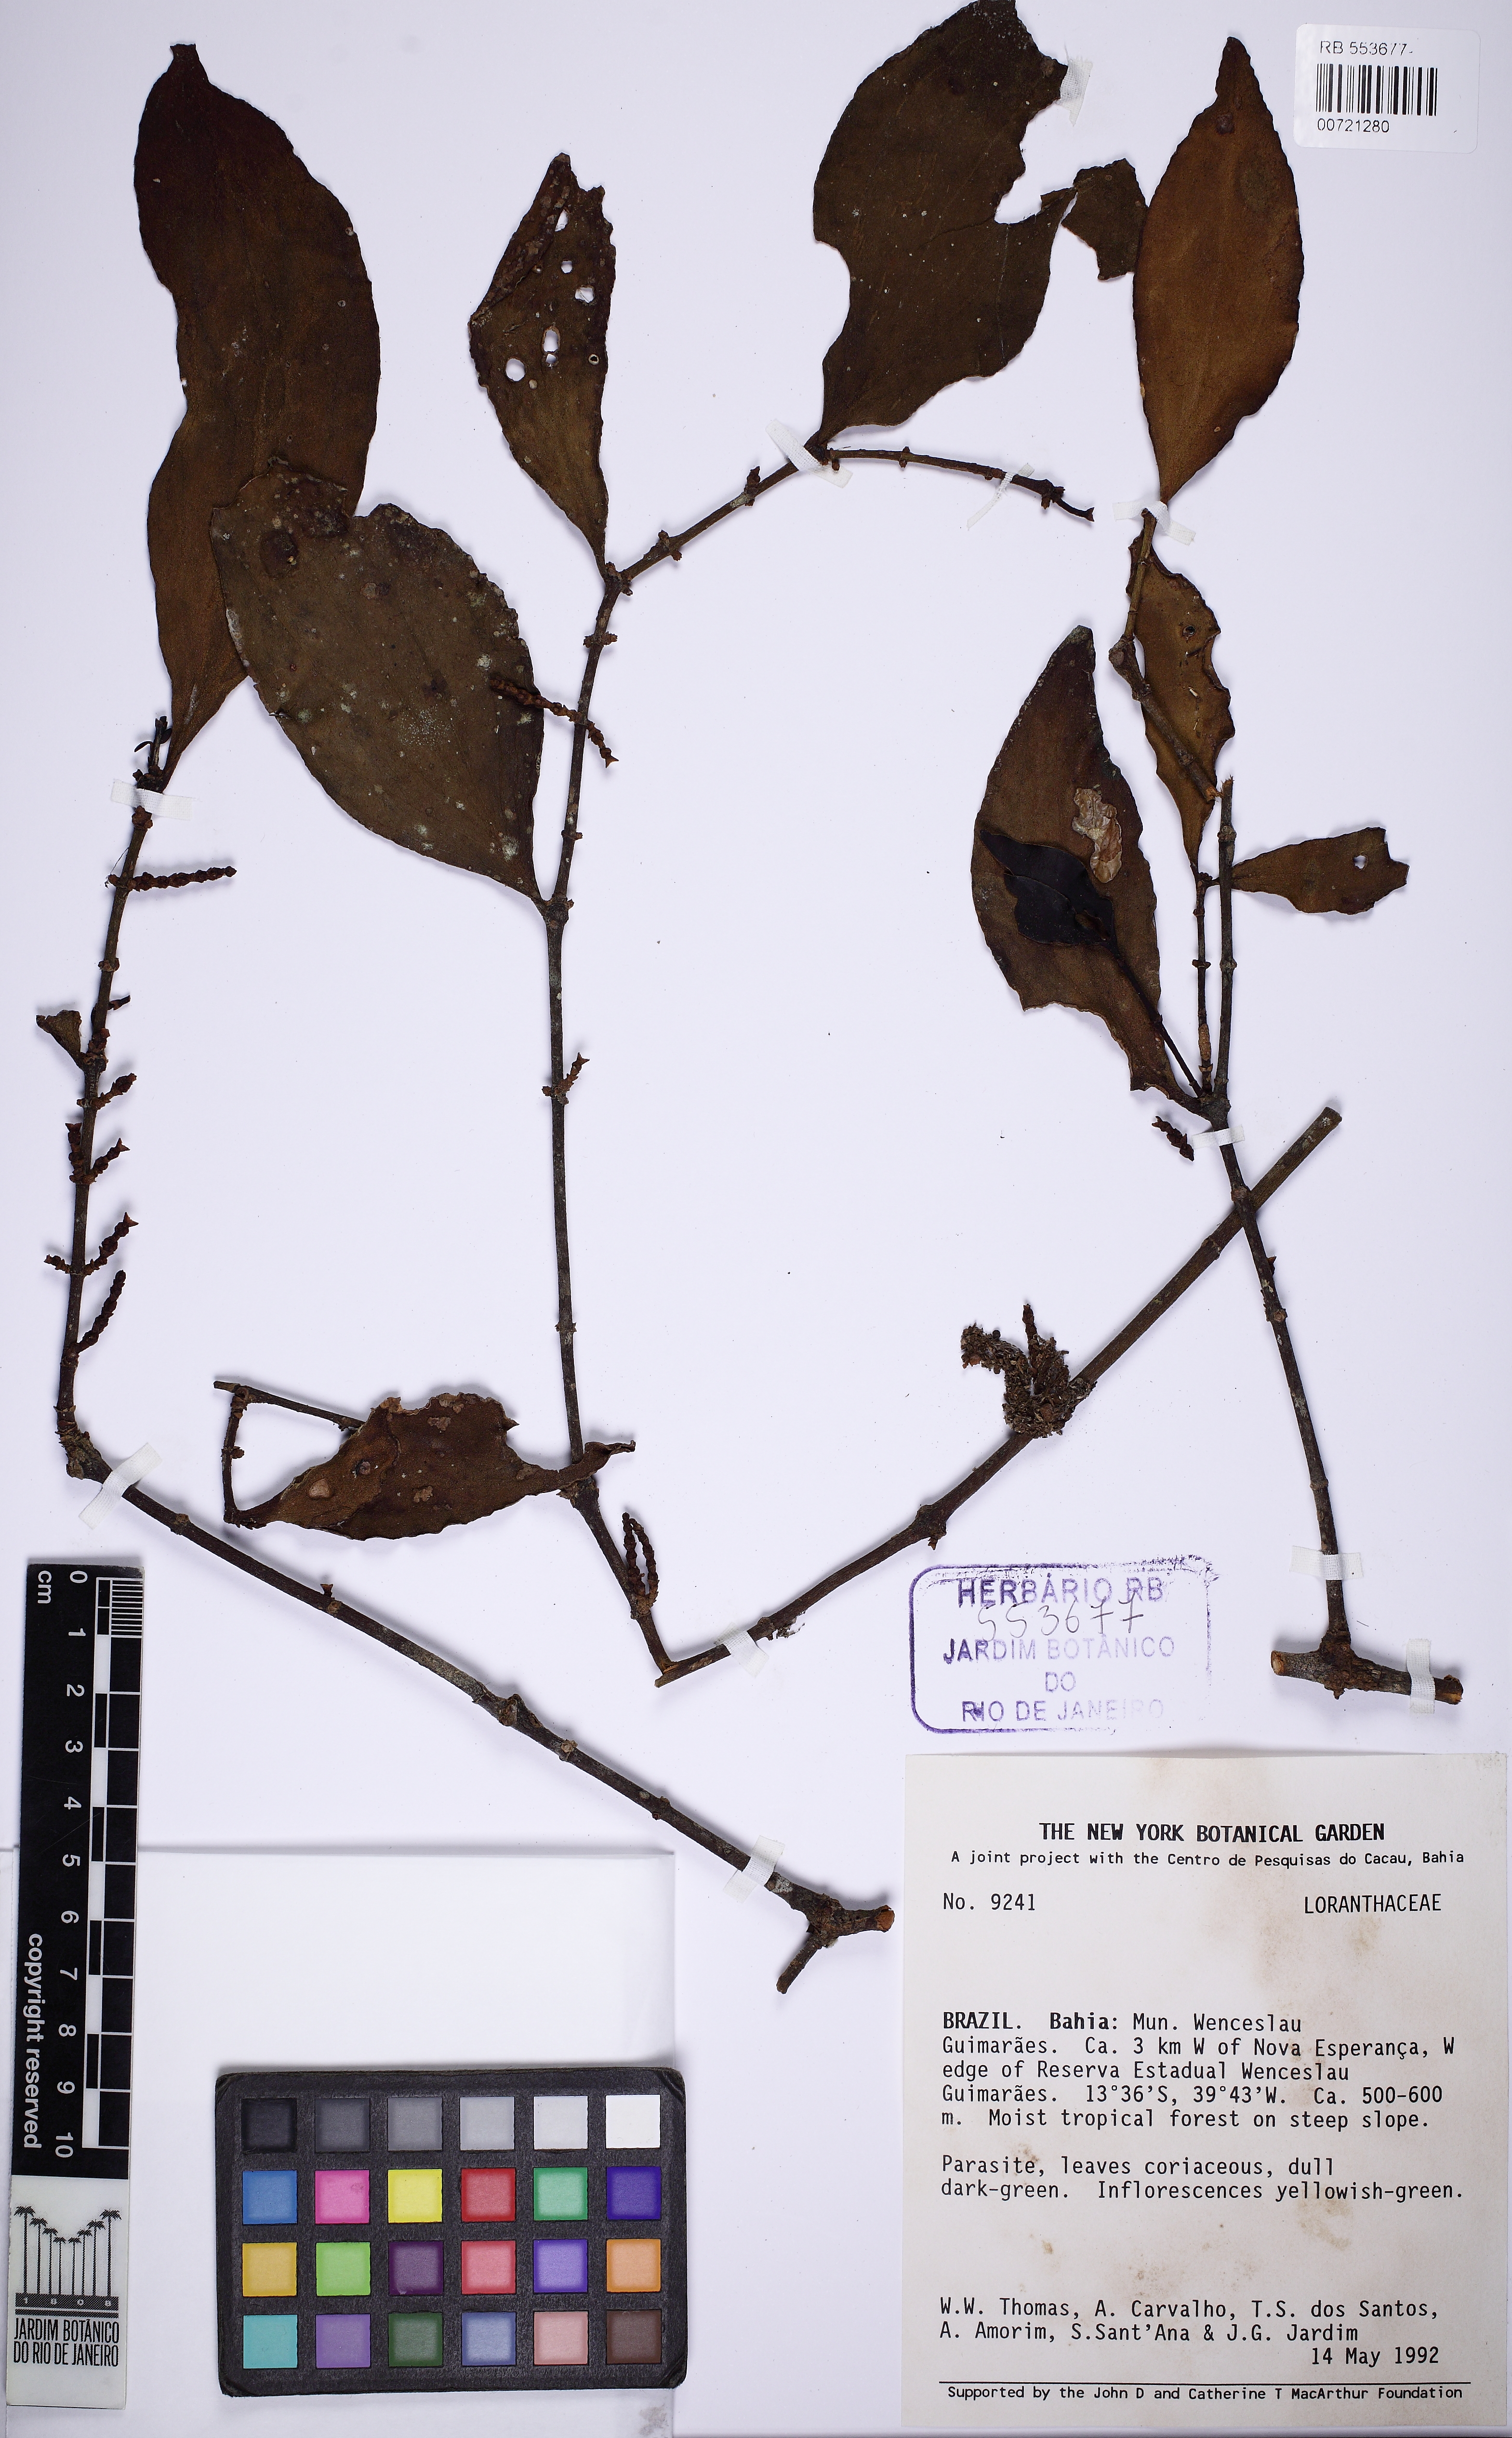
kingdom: Plantae
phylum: Tracheophyta
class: Magnoliopsida
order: Santalales
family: Viscaceae
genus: Phoradendron
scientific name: Phoradendron crassifolium
